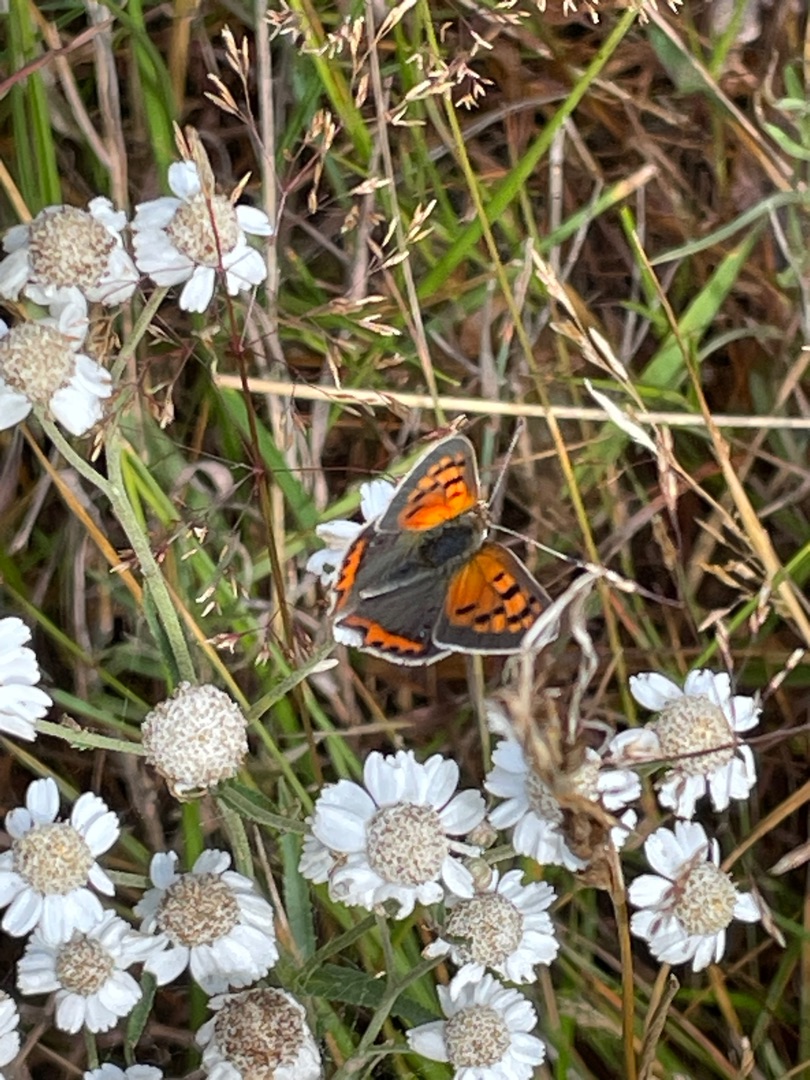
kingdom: Animalia
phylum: Arthropoda
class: Insecta
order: Lepidoptera
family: Lycaenidae
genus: Lycaena
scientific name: Lycaena phlaeas
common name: Lille ildfugl
